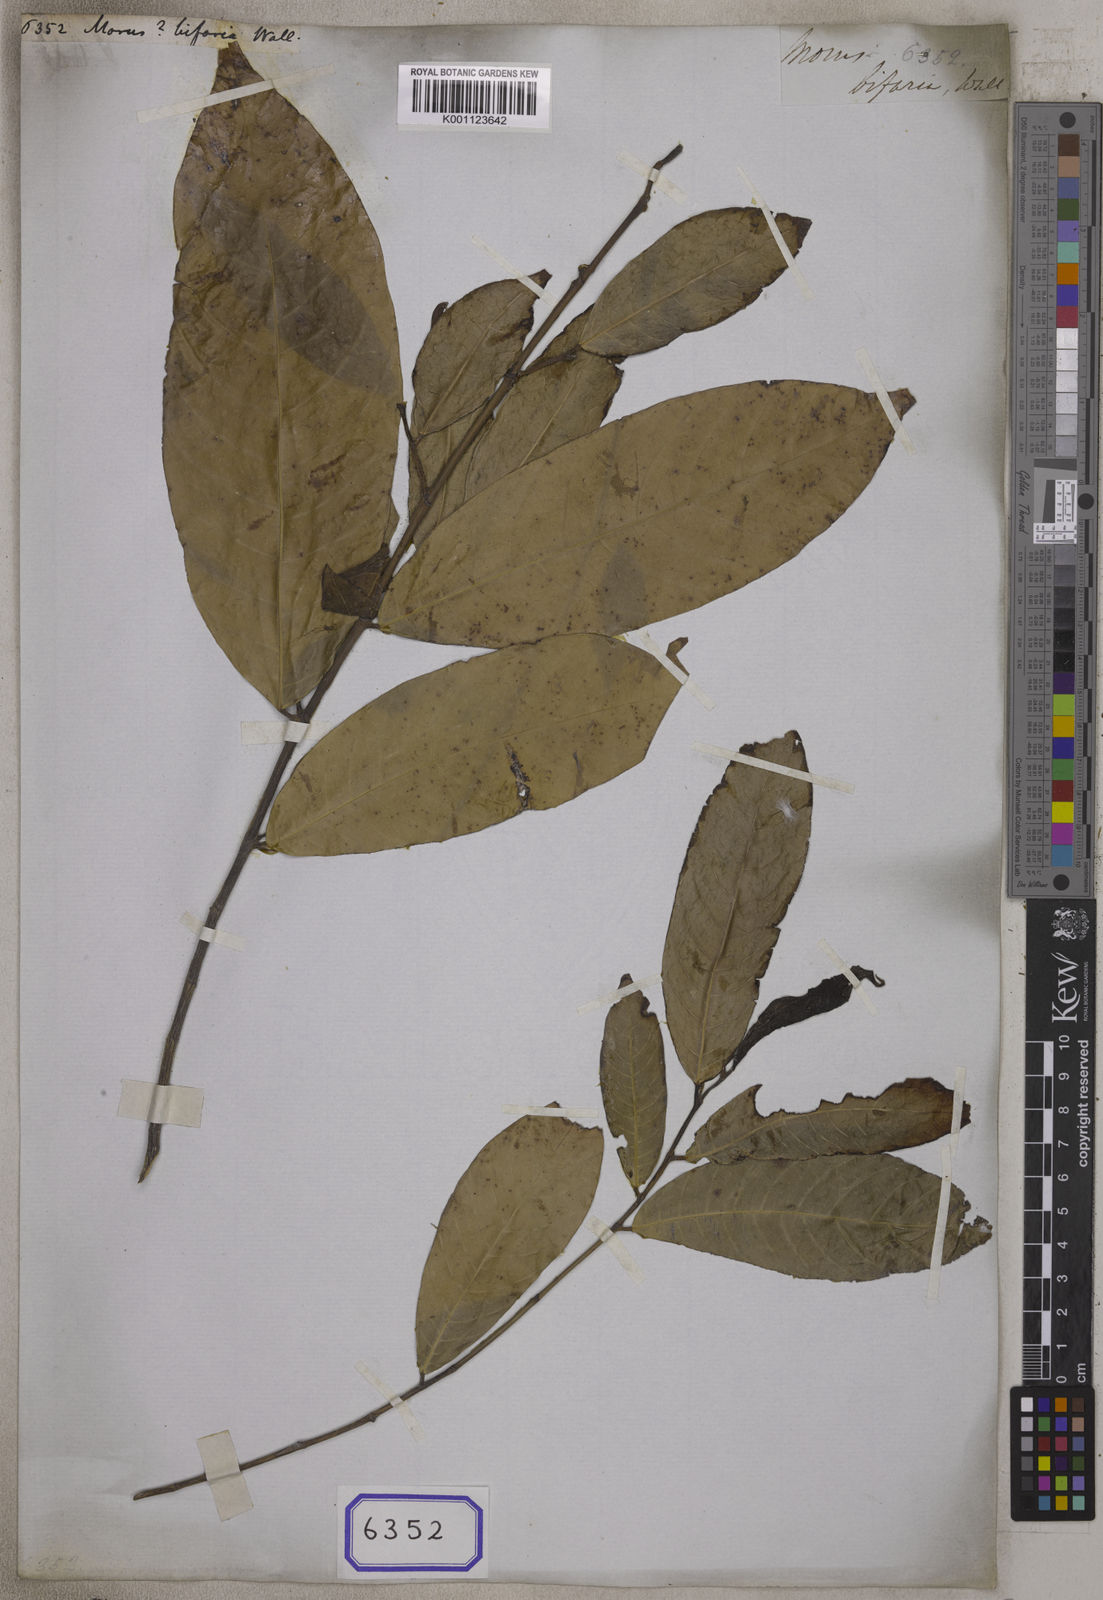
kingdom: Plantae
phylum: Tracheophyta
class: Magnoliopsida
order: Rosales
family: Moraceae
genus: Sloetia
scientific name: Sloetia elongata
